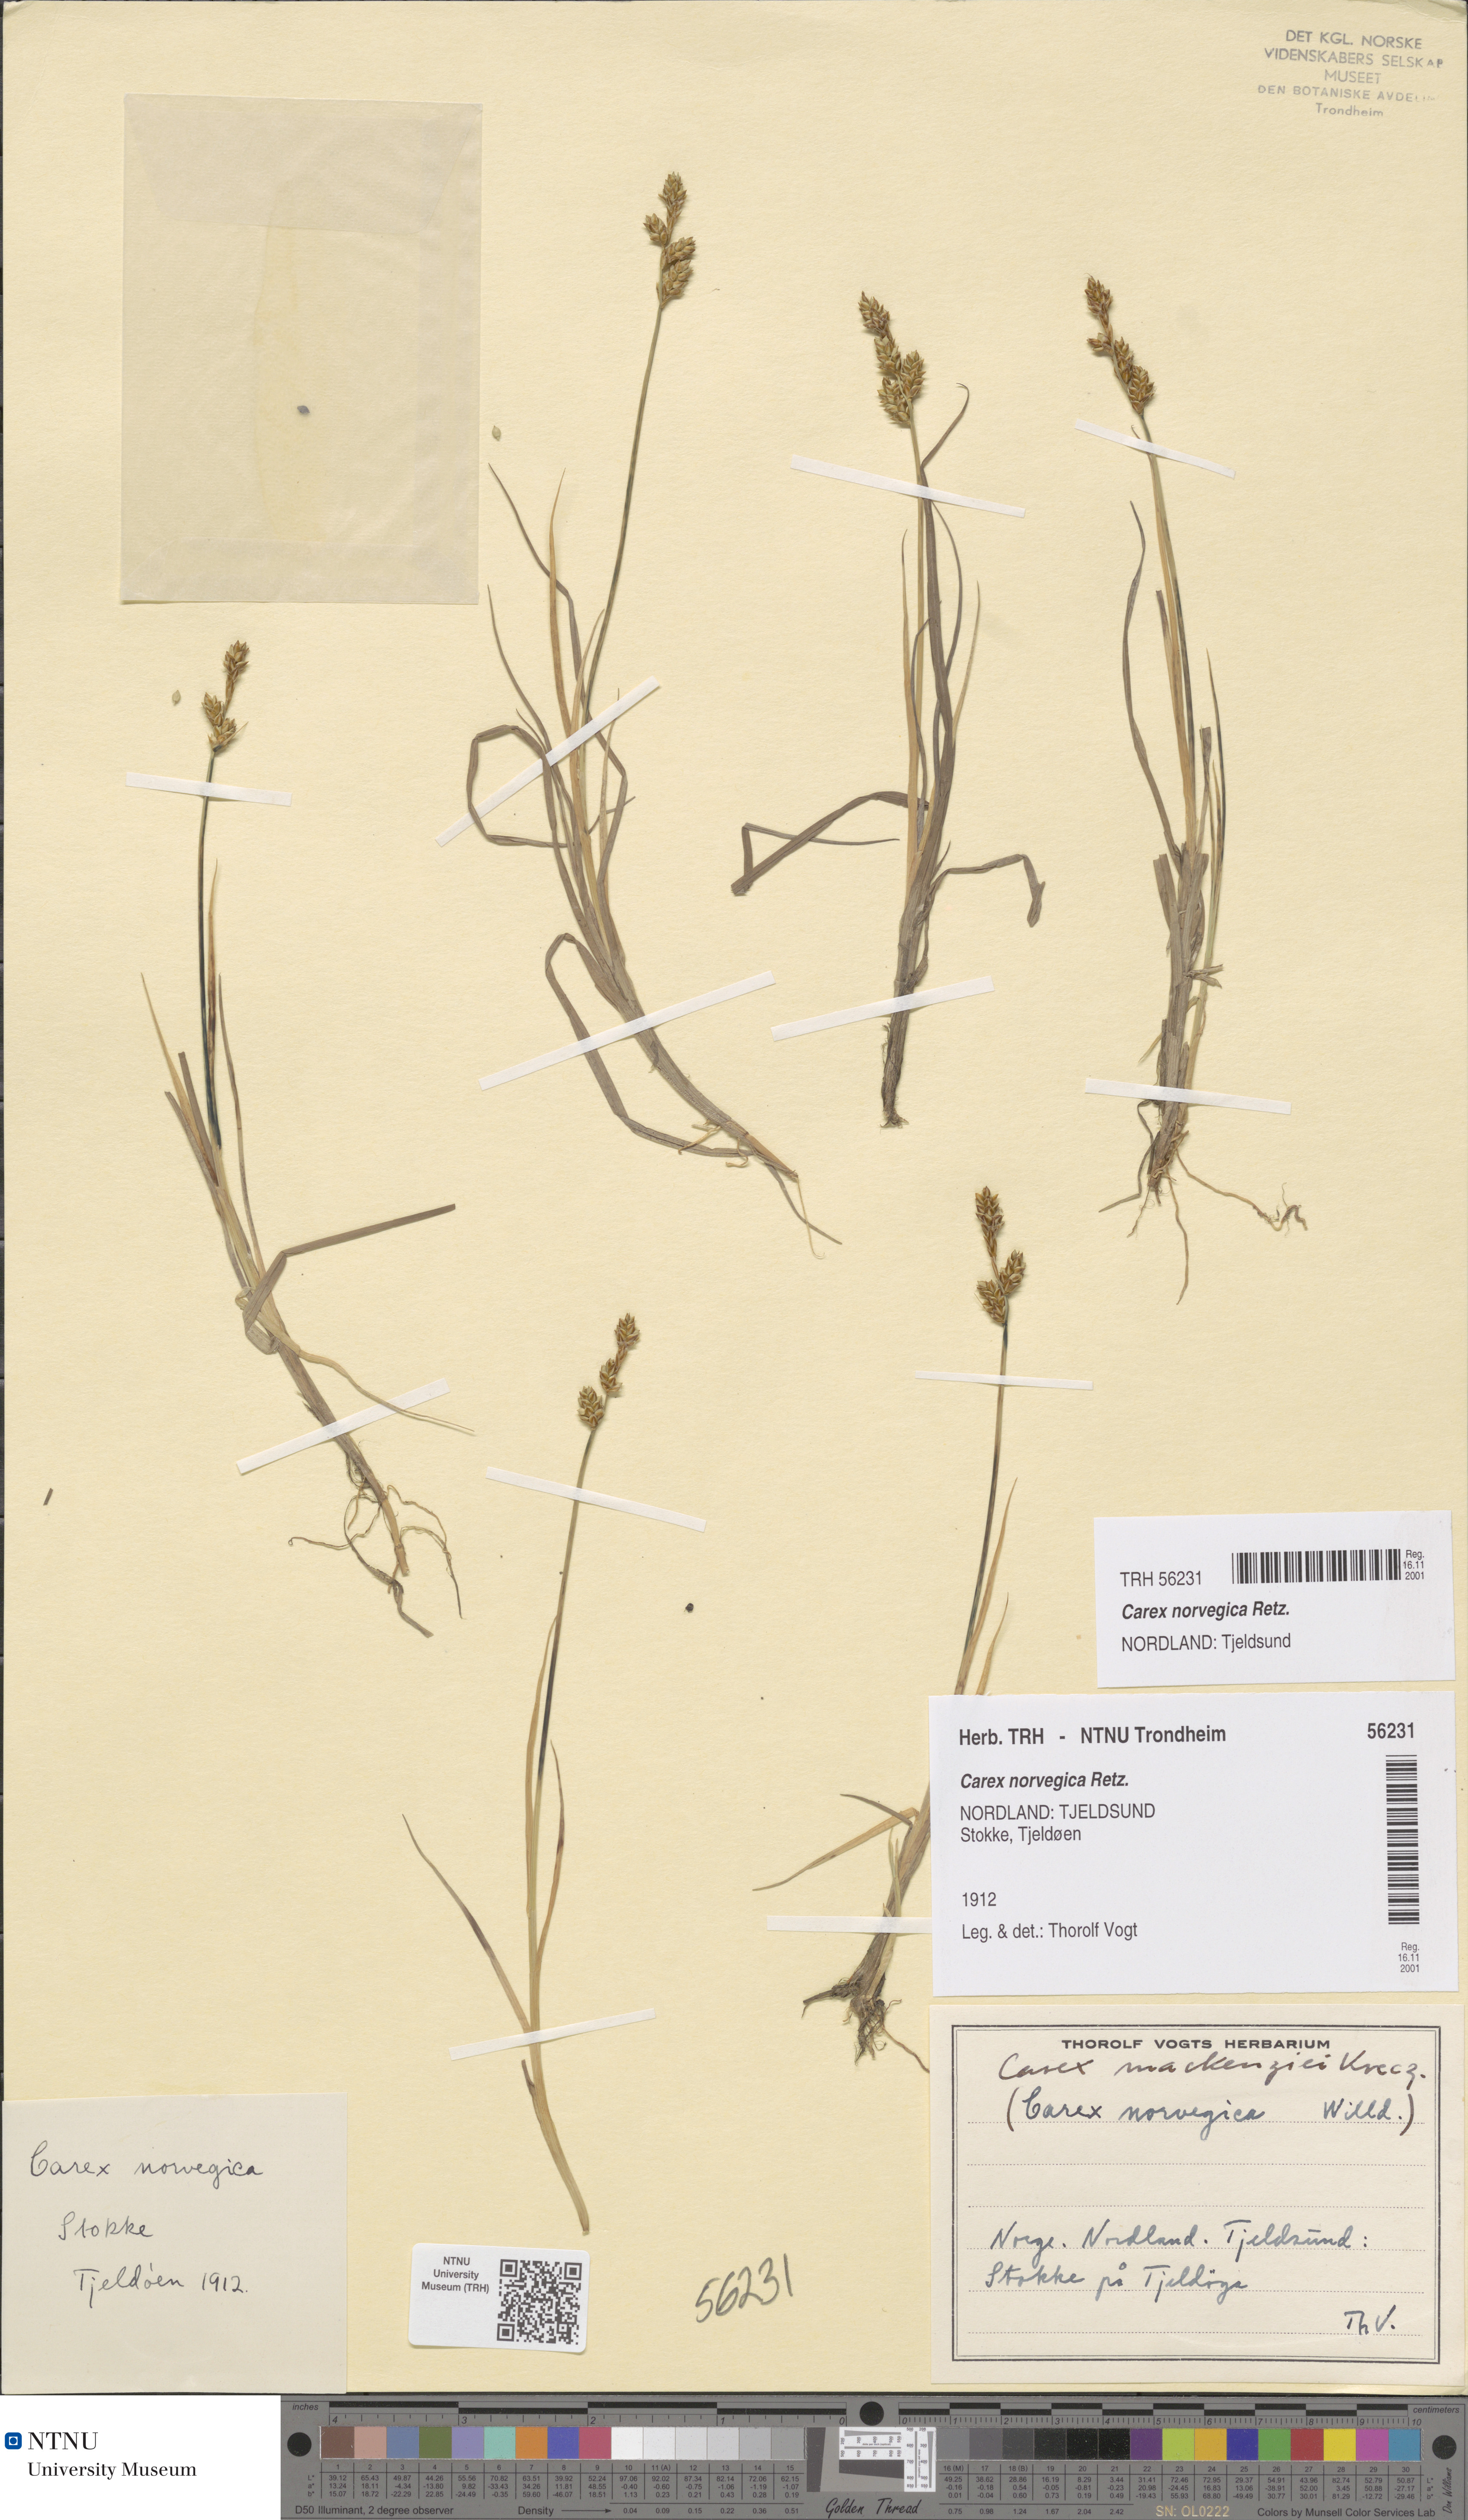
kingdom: Plantae
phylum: Tracheophyta
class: Liliopsida
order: Poales
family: Cyperaceae
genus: Carex
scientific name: Carex norvegica
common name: Close-headed alpine-sedge
